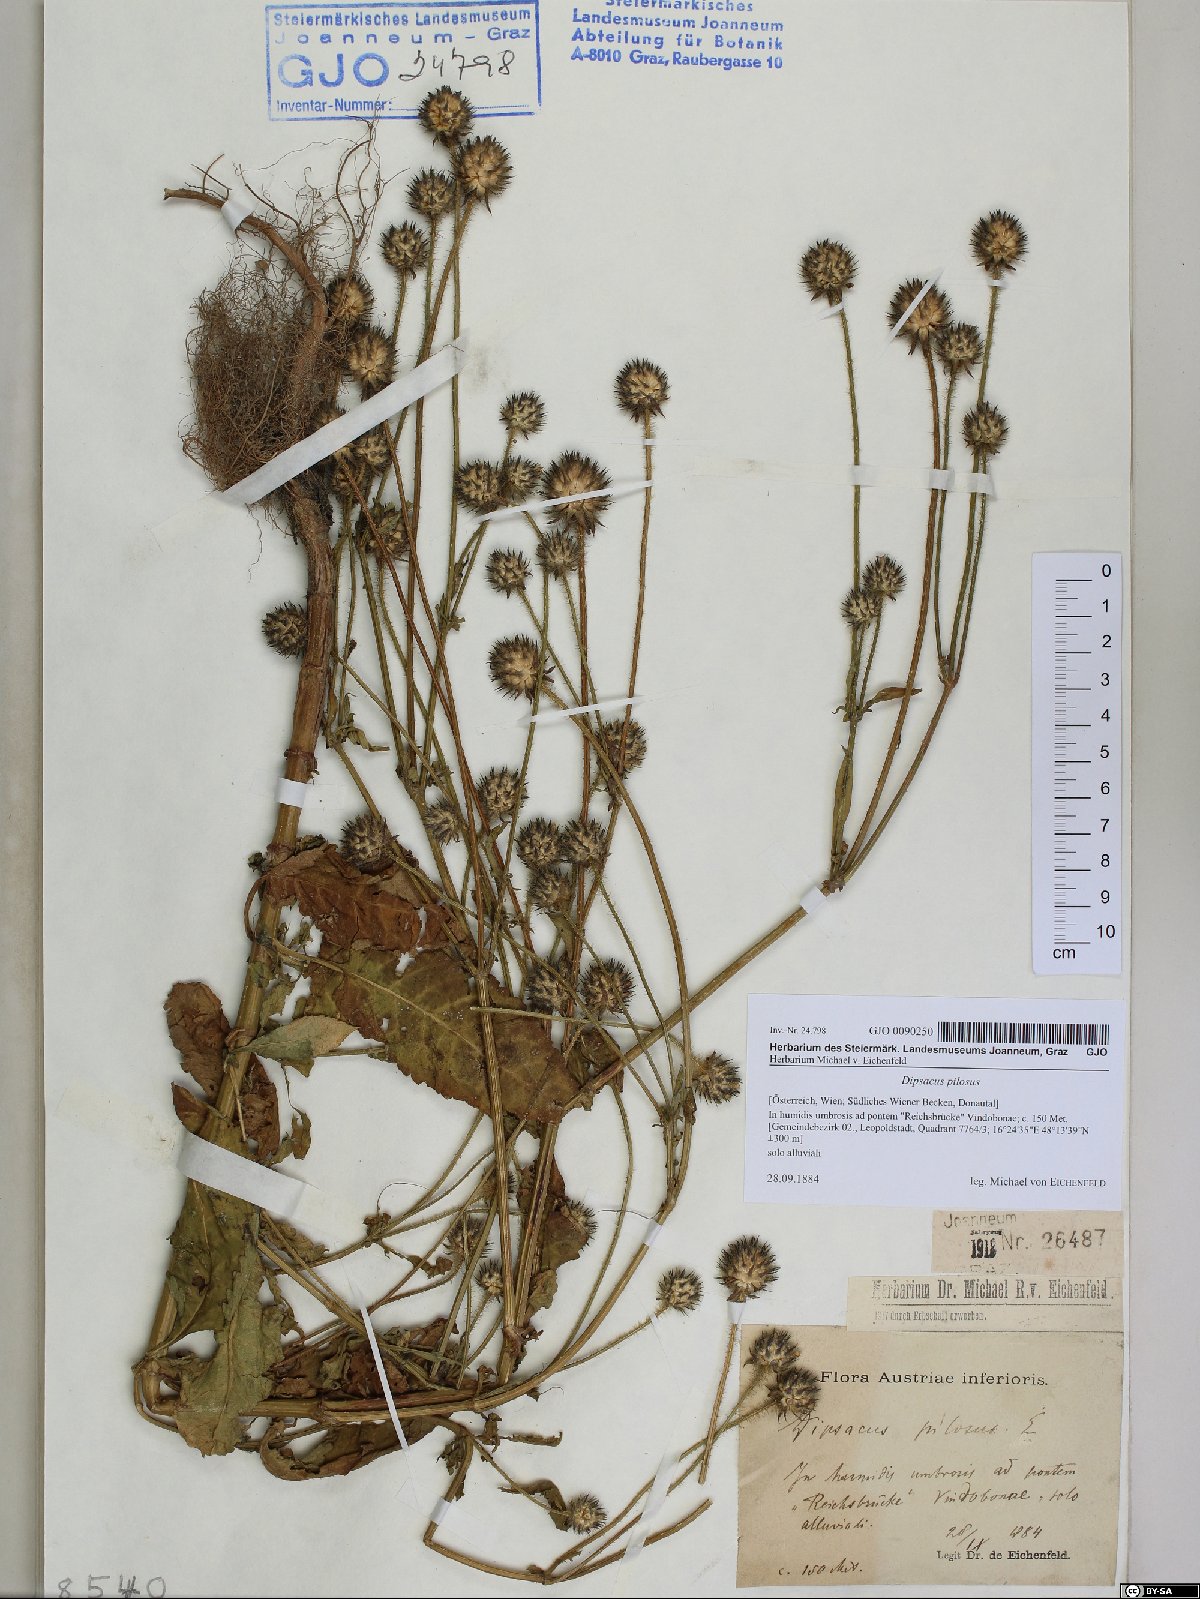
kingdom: Plantae
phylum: Tracheophyta
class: Magnoliopsida
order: Dipsacales
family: Caprifoliaceae
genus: Dipsacus
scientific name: Dipsacus pilosus
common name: Small teasel
